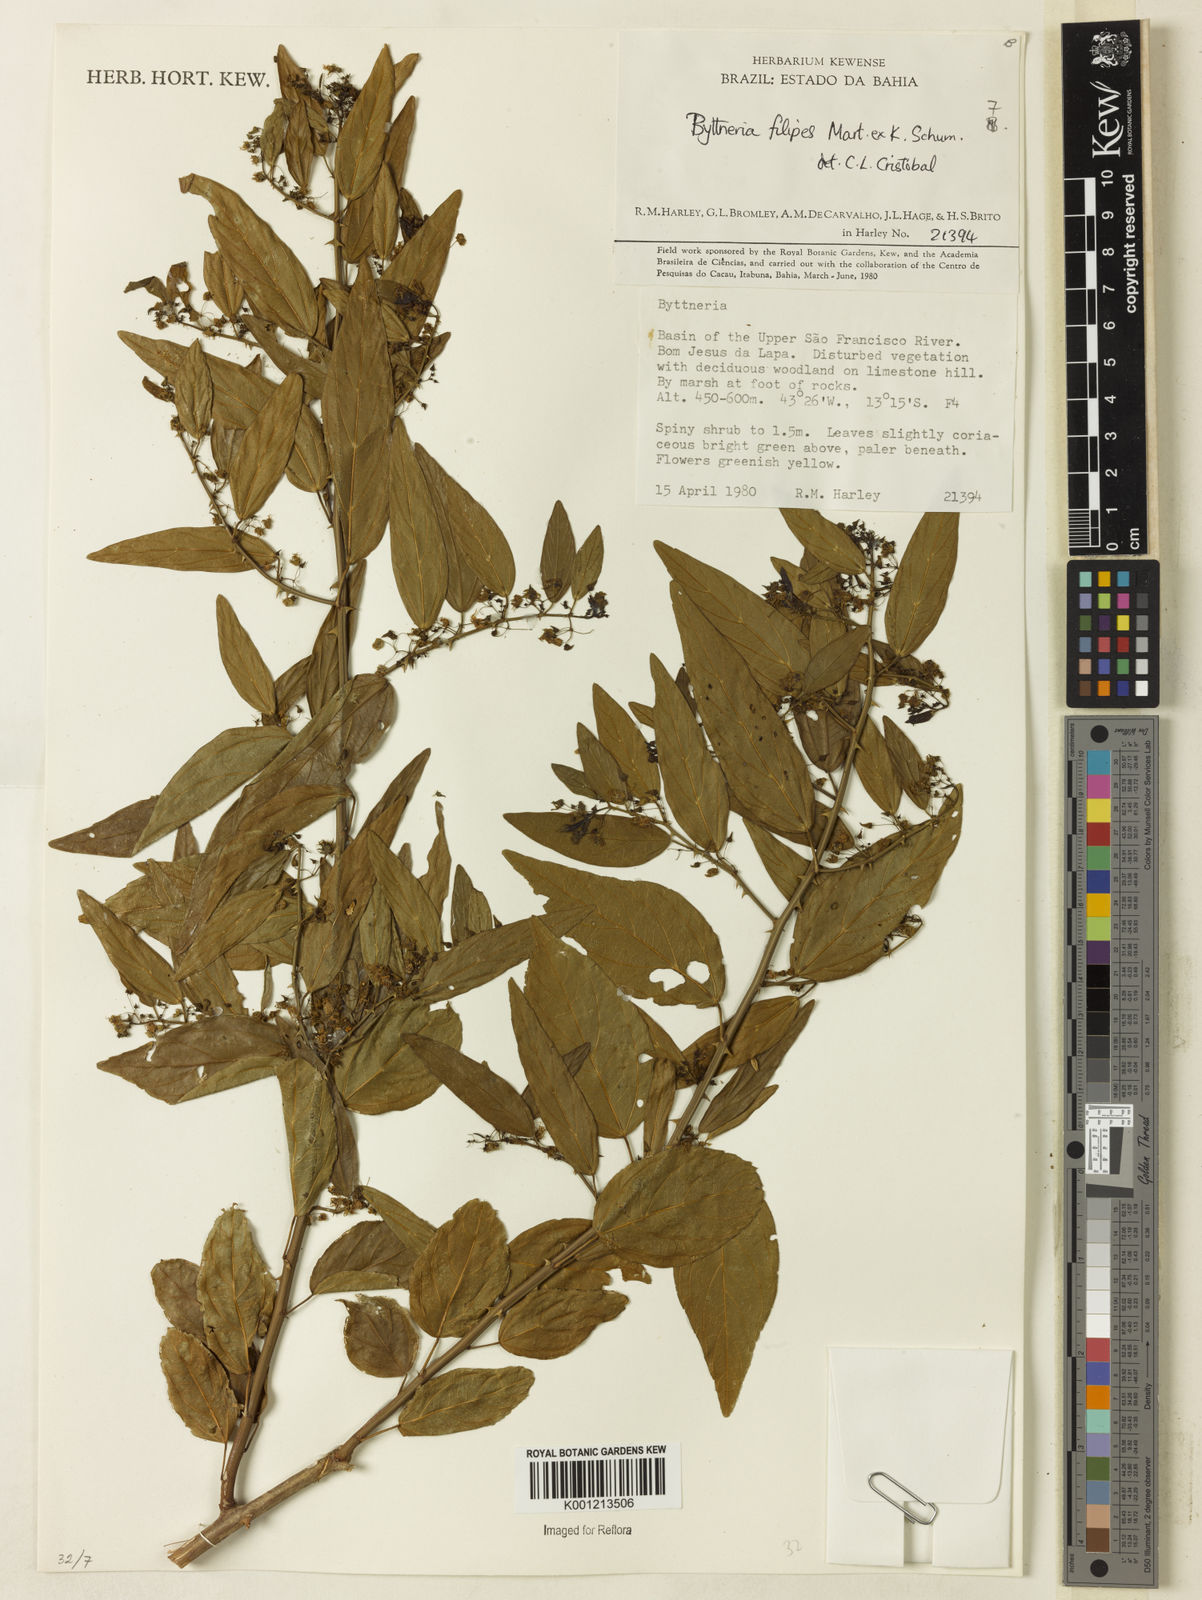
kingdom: Plantae
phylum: Tracheophyta
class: Magnoliopsida
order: Malvales
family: Malvaceae
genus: Byttneria
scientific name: Byttneria filipes
